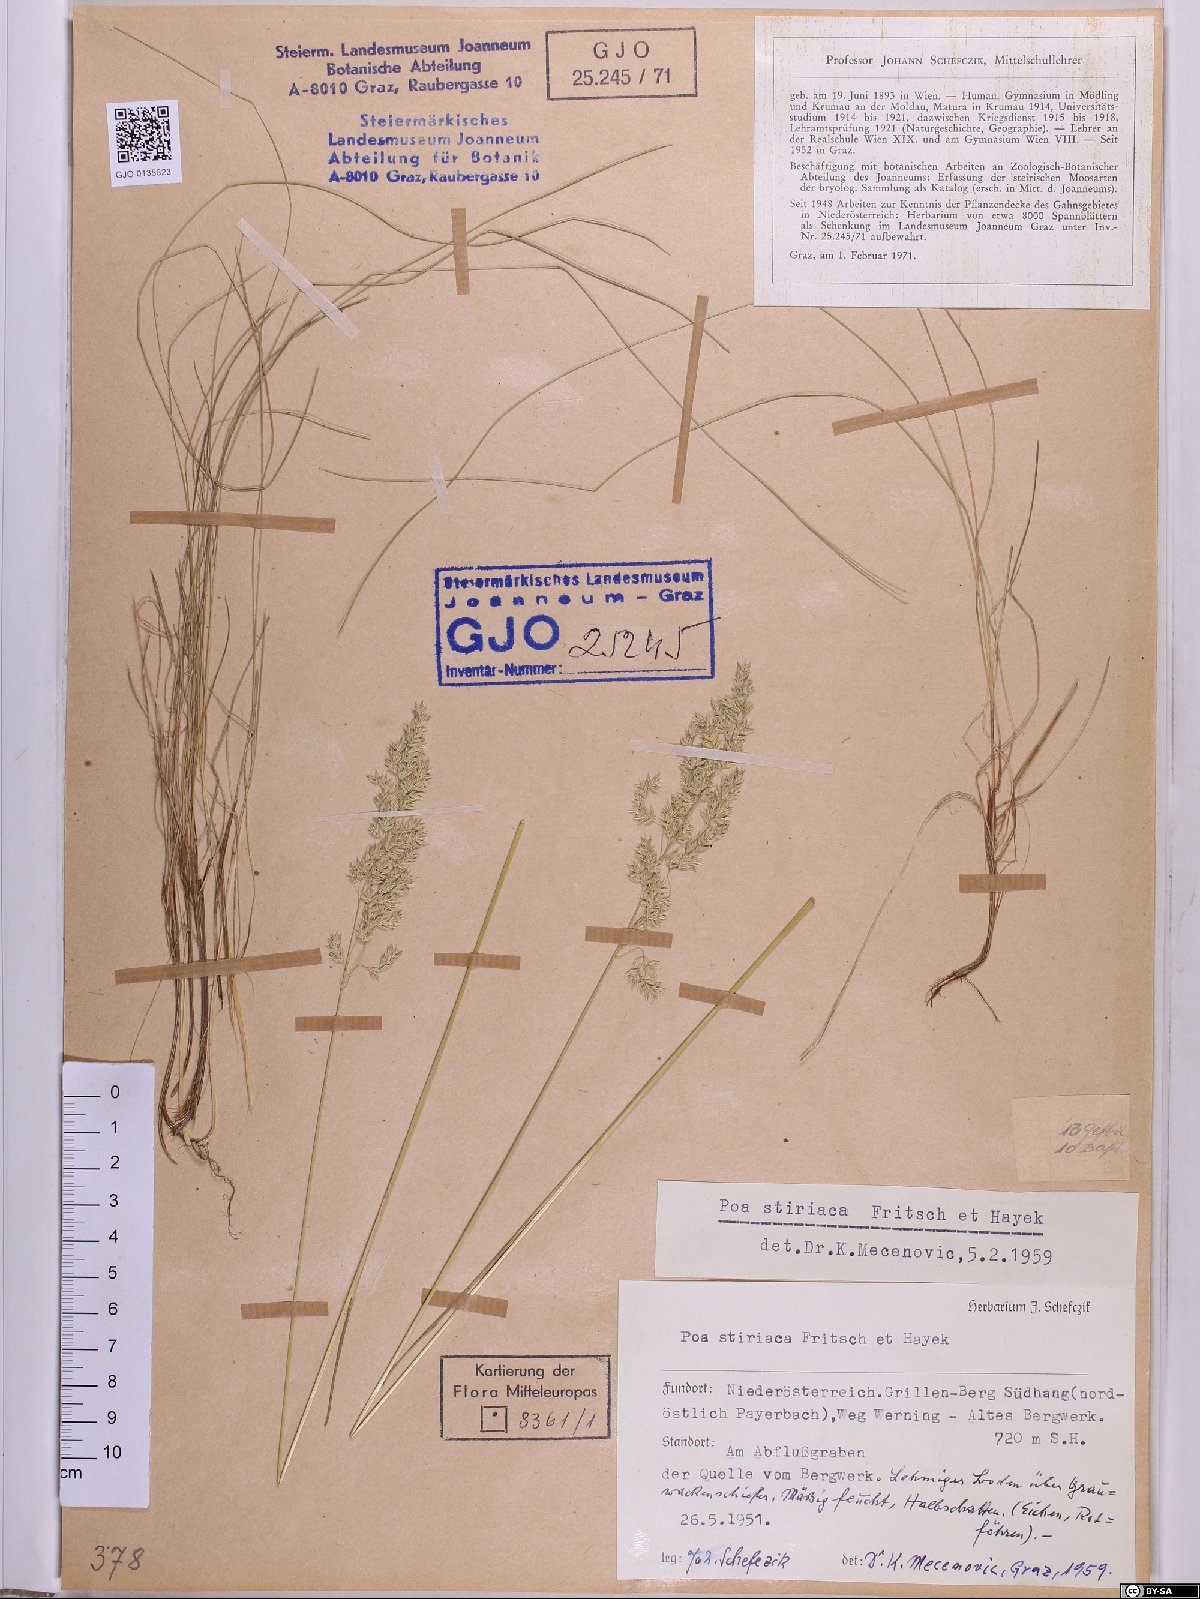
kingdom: Plantae
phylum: Tracheophyta
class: Liliopsida
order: Poales
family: Poaceae
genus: Poa
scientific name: Poa stiriaca
